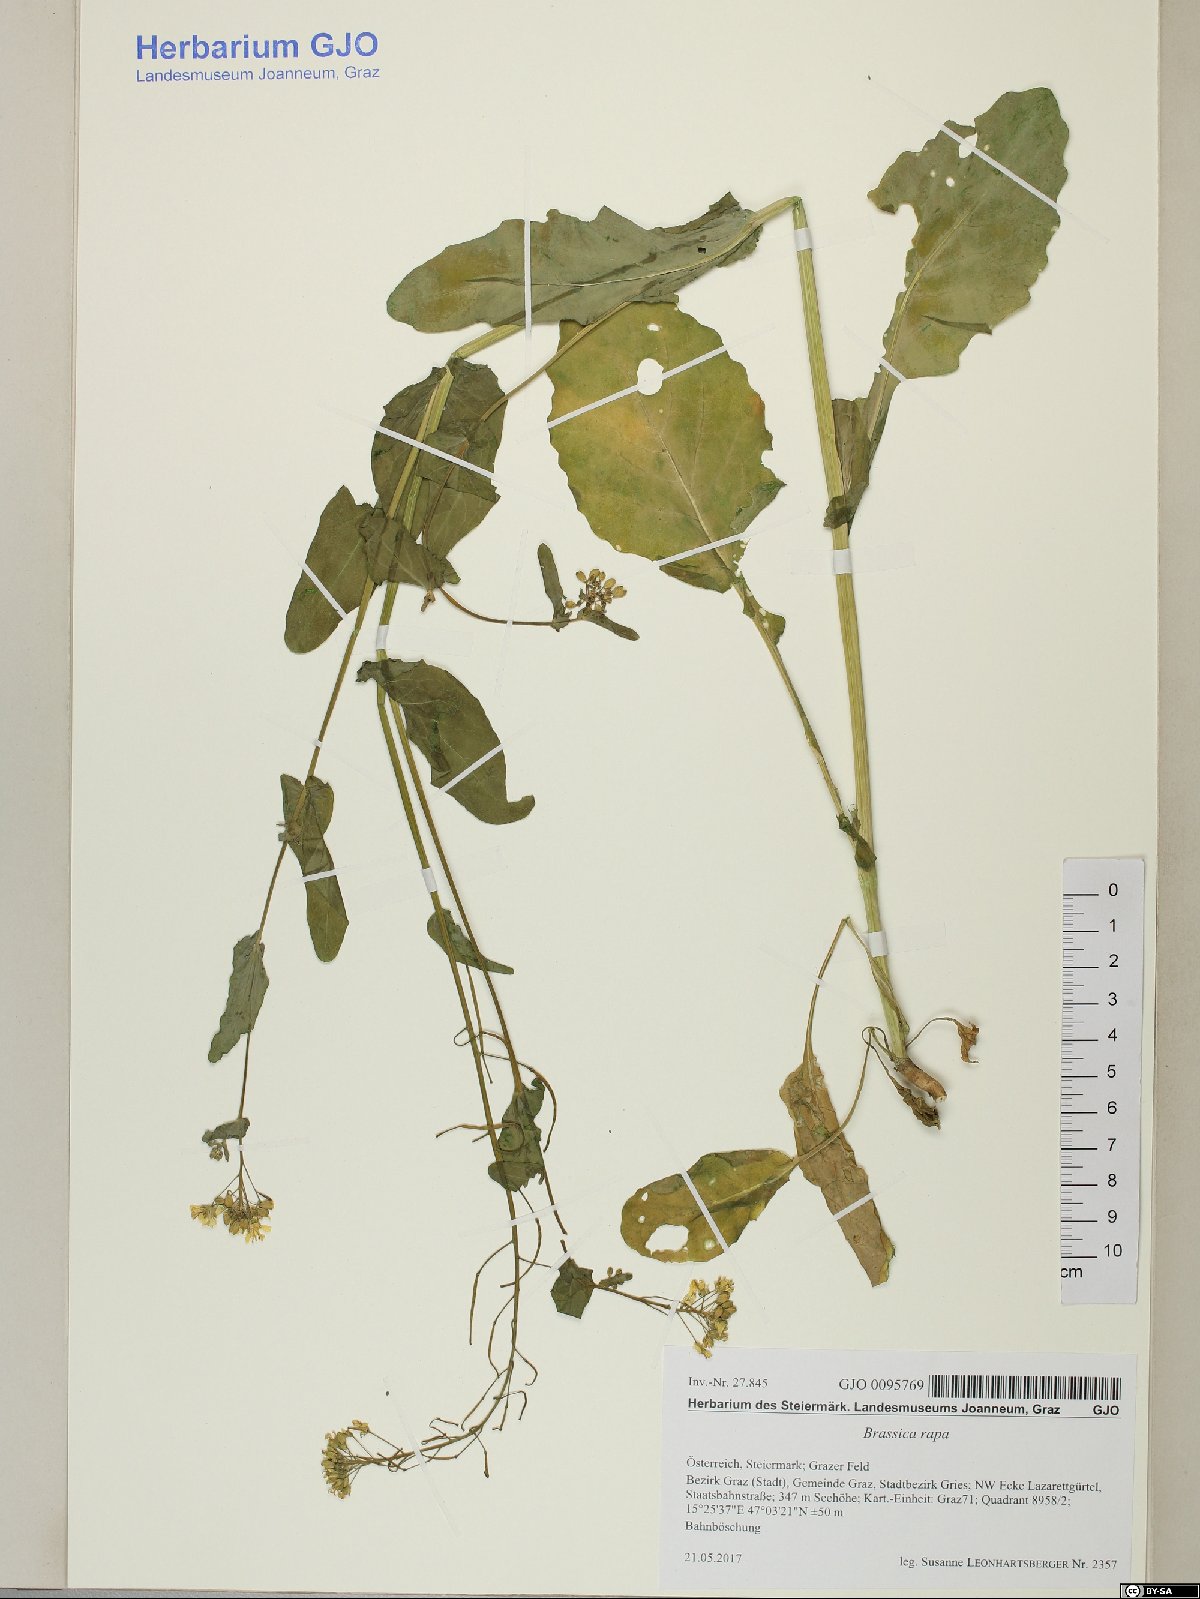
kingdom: Plantae
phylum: Tracheophyta
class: Magnoliopsida
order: Brassicales
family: Brassicaceae
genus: Brassica
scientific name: Brassica rapa
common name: Field mustard
